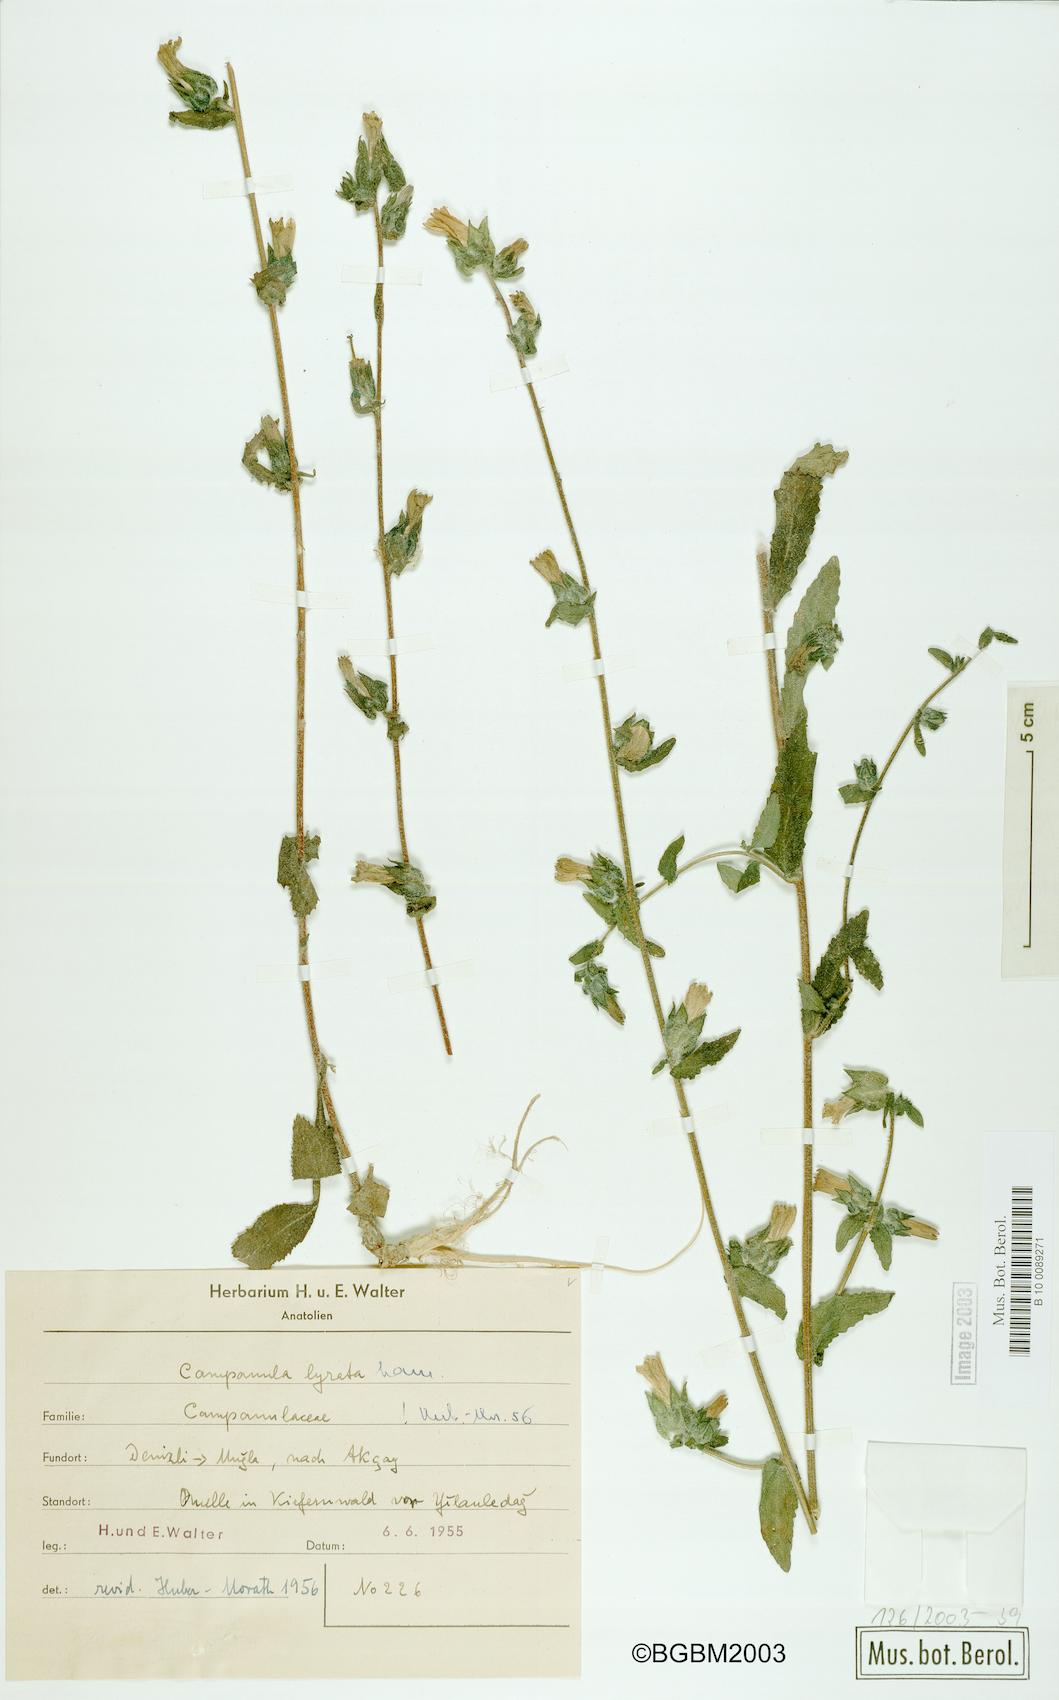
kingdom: Plantae
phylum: Tracheophyta
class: Magnoliopsida
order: Asterales
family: Campanulaceae
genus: Campanula
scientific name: Campanula lyrata
